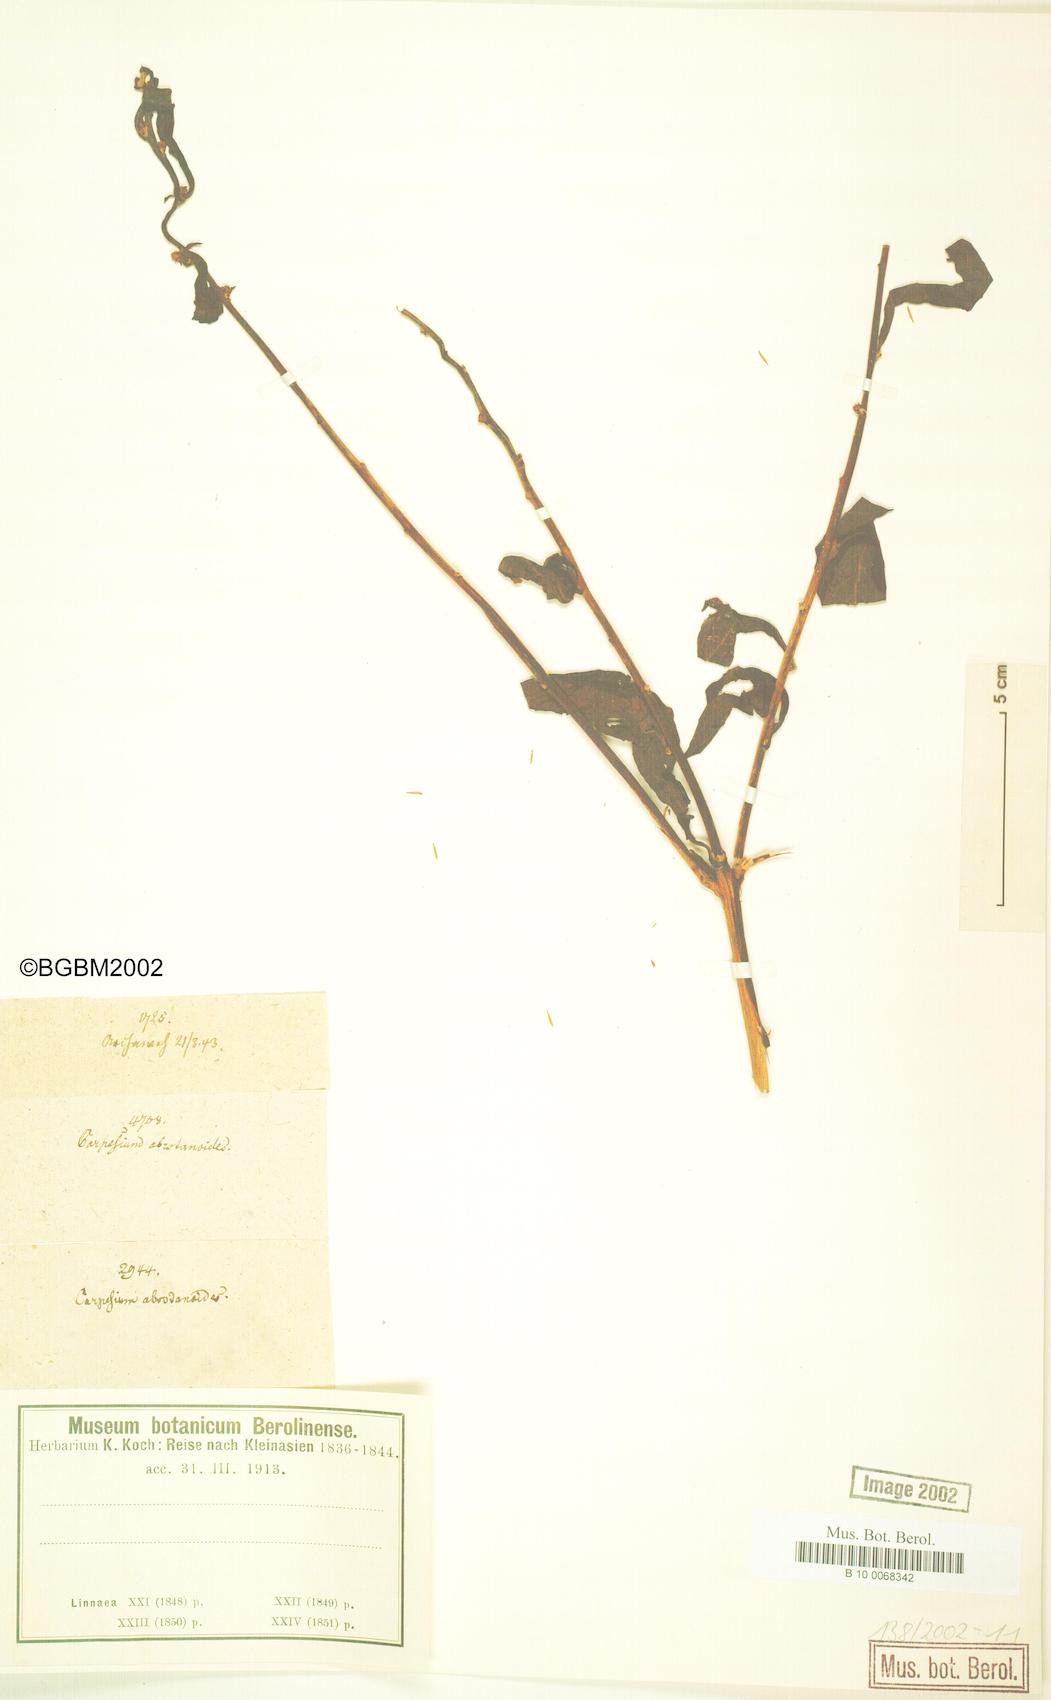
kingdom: Plantae
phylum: Tracheophyta
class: Magnoliopsida
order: Asterales
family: Asteraceae
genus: Carpesium
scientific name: Carpesium abrotanoides
